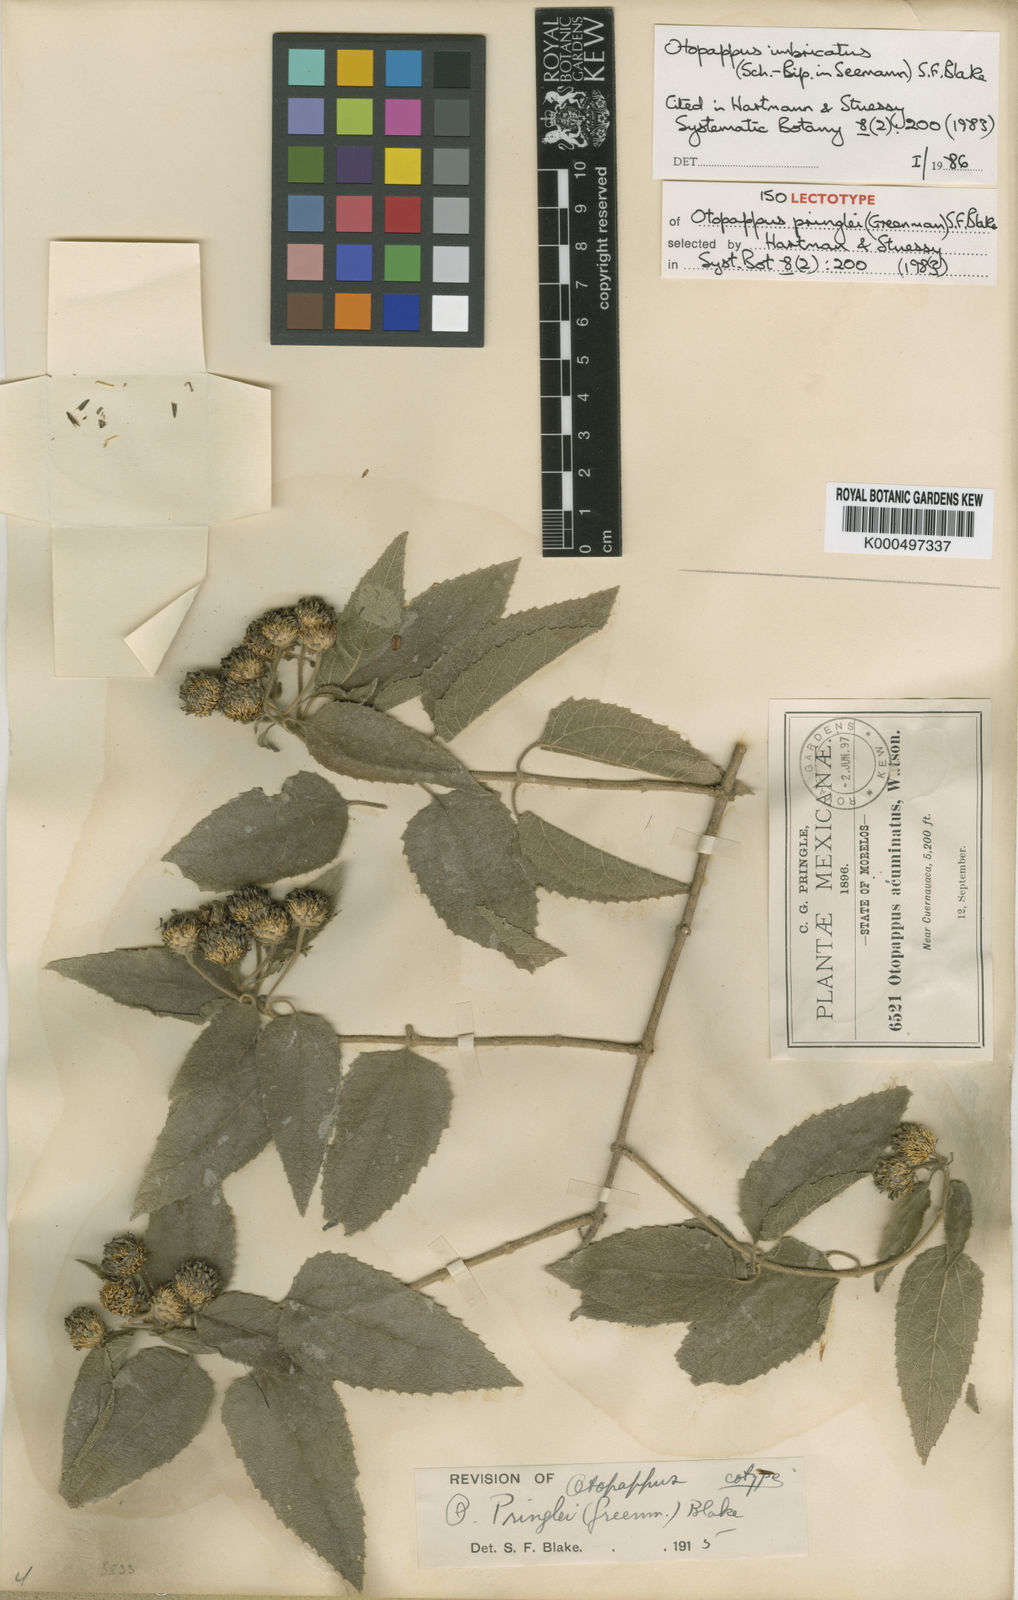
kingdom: Plantae
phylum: Tracheophyta
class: Magnoliopsida
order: Asterales
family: Asteraceae
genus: Otopappus
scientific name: Otopappus imbricatus
